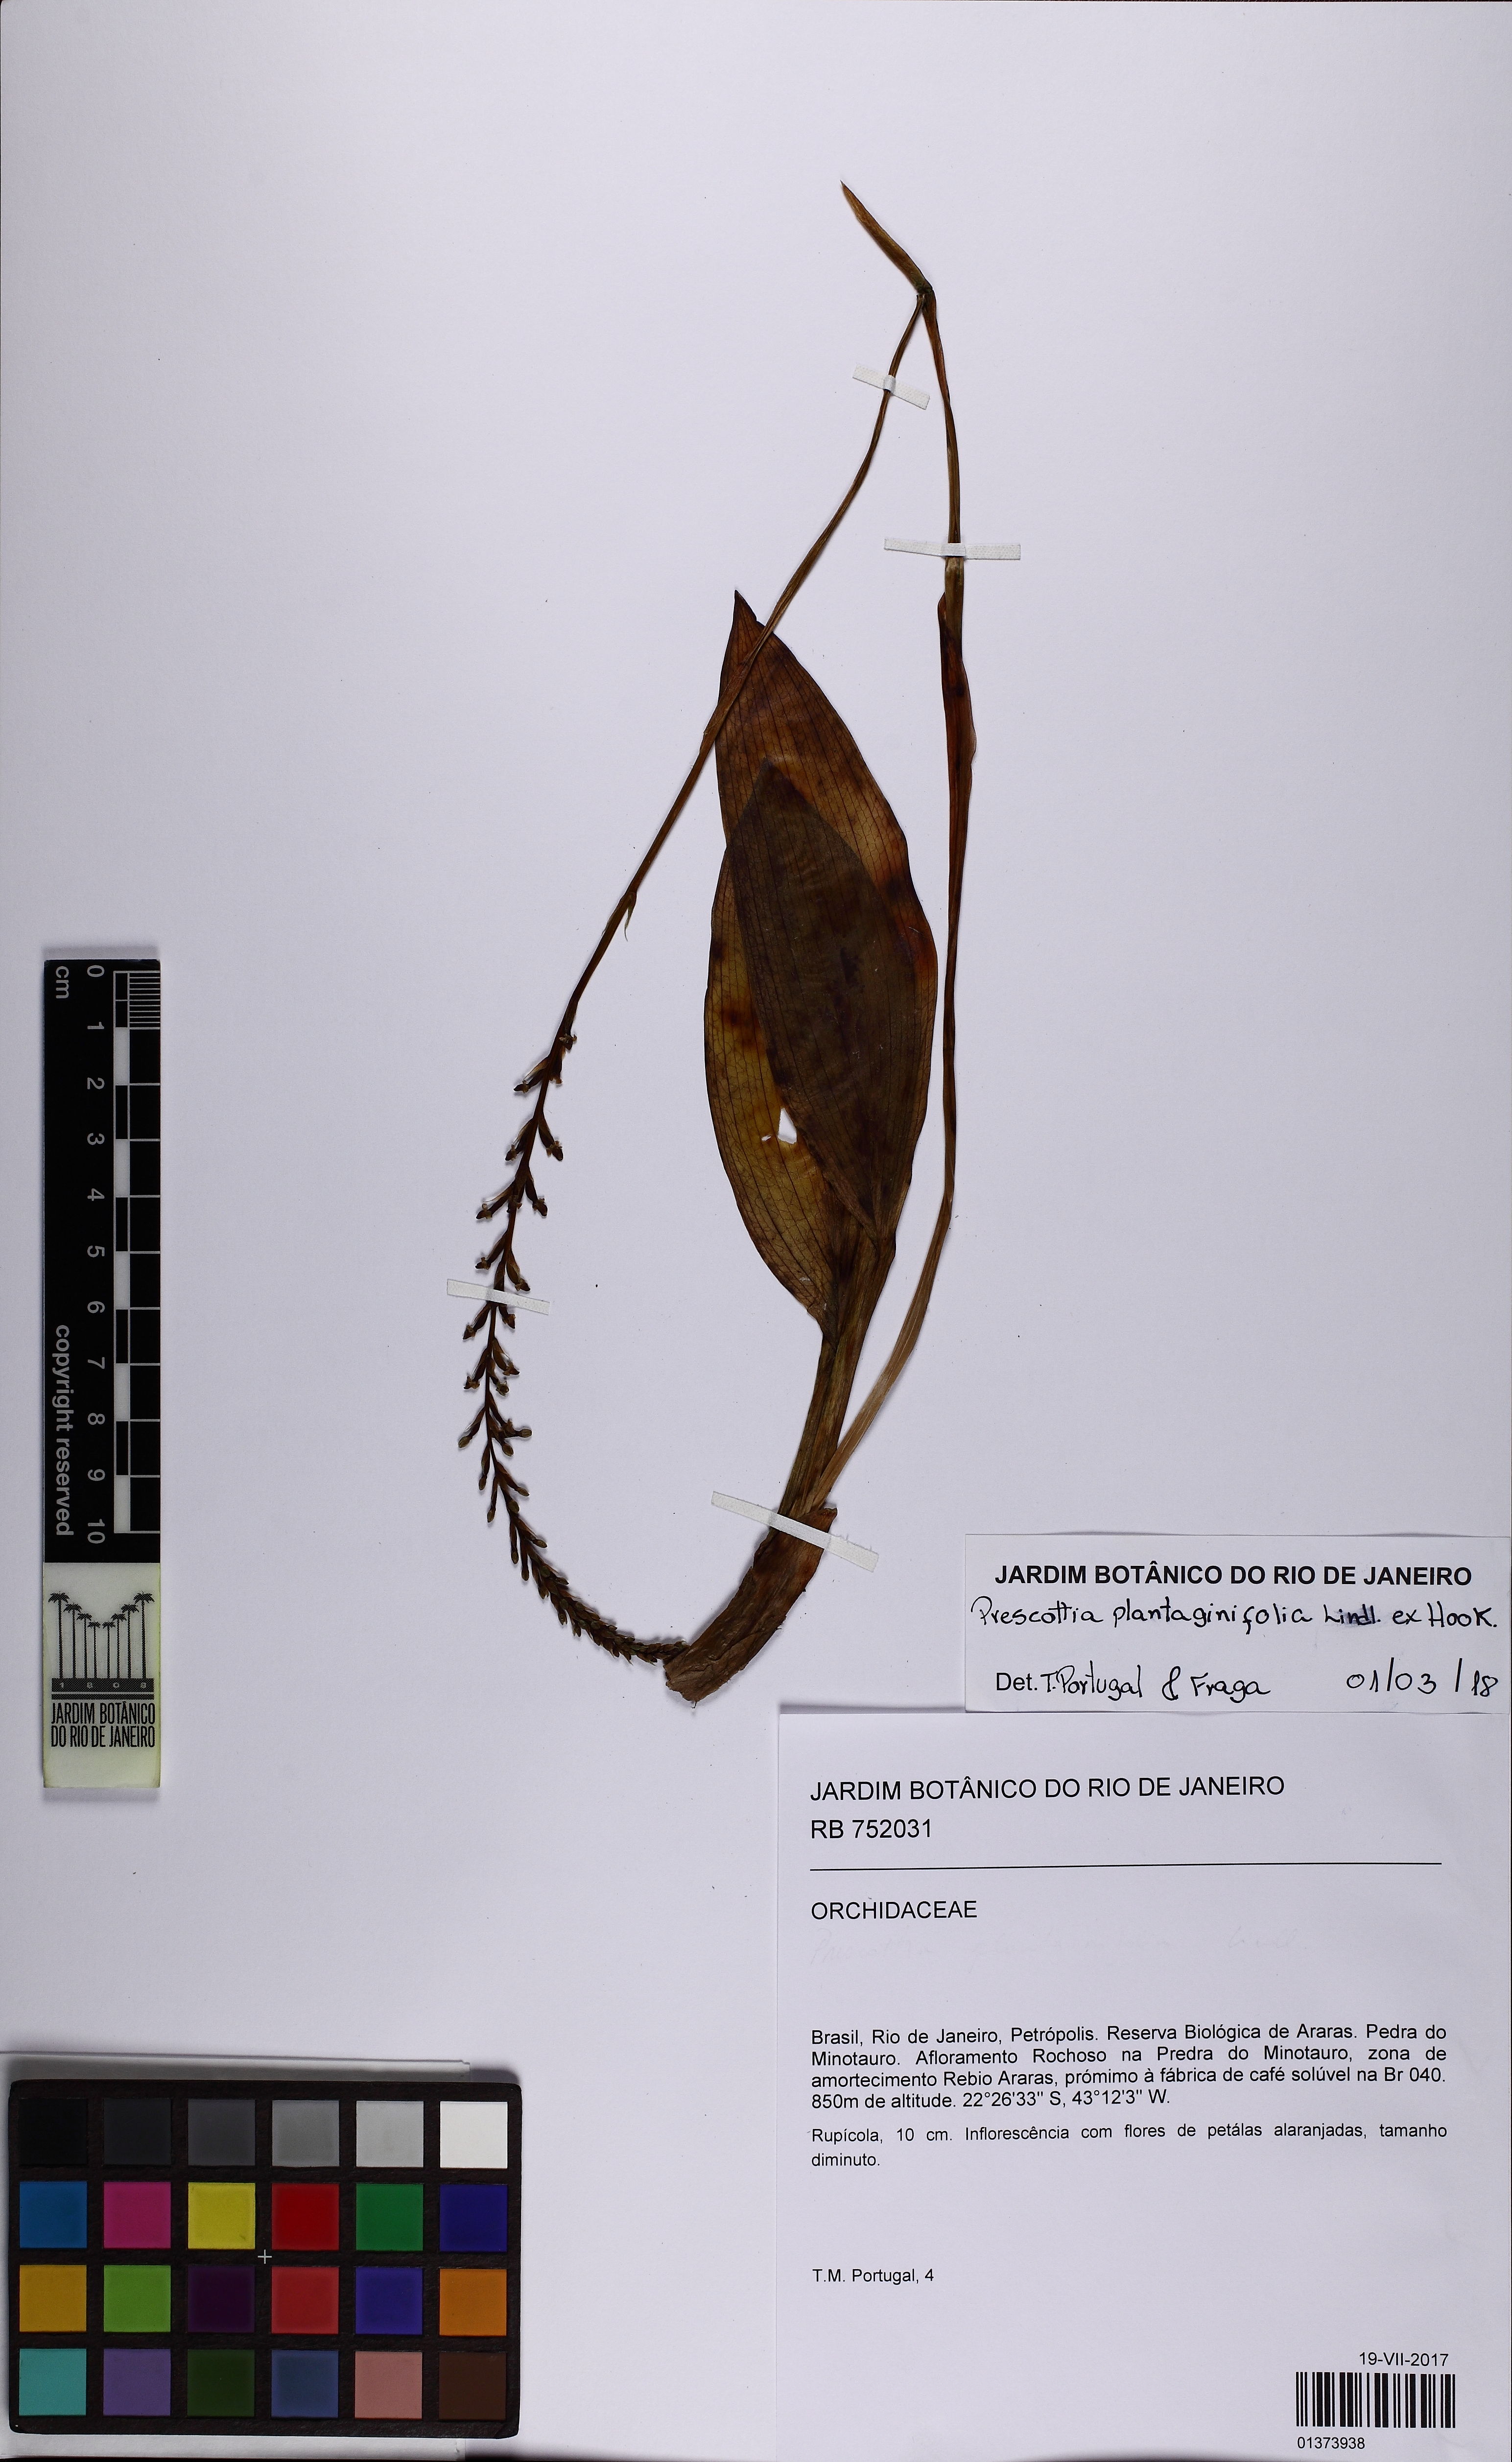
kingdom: Plantae
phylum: Tracheophyta
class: Liliopsida
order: Asparagales
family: Orchidaceae
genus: Prescottia
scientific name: Prescottia plantaginifolia
